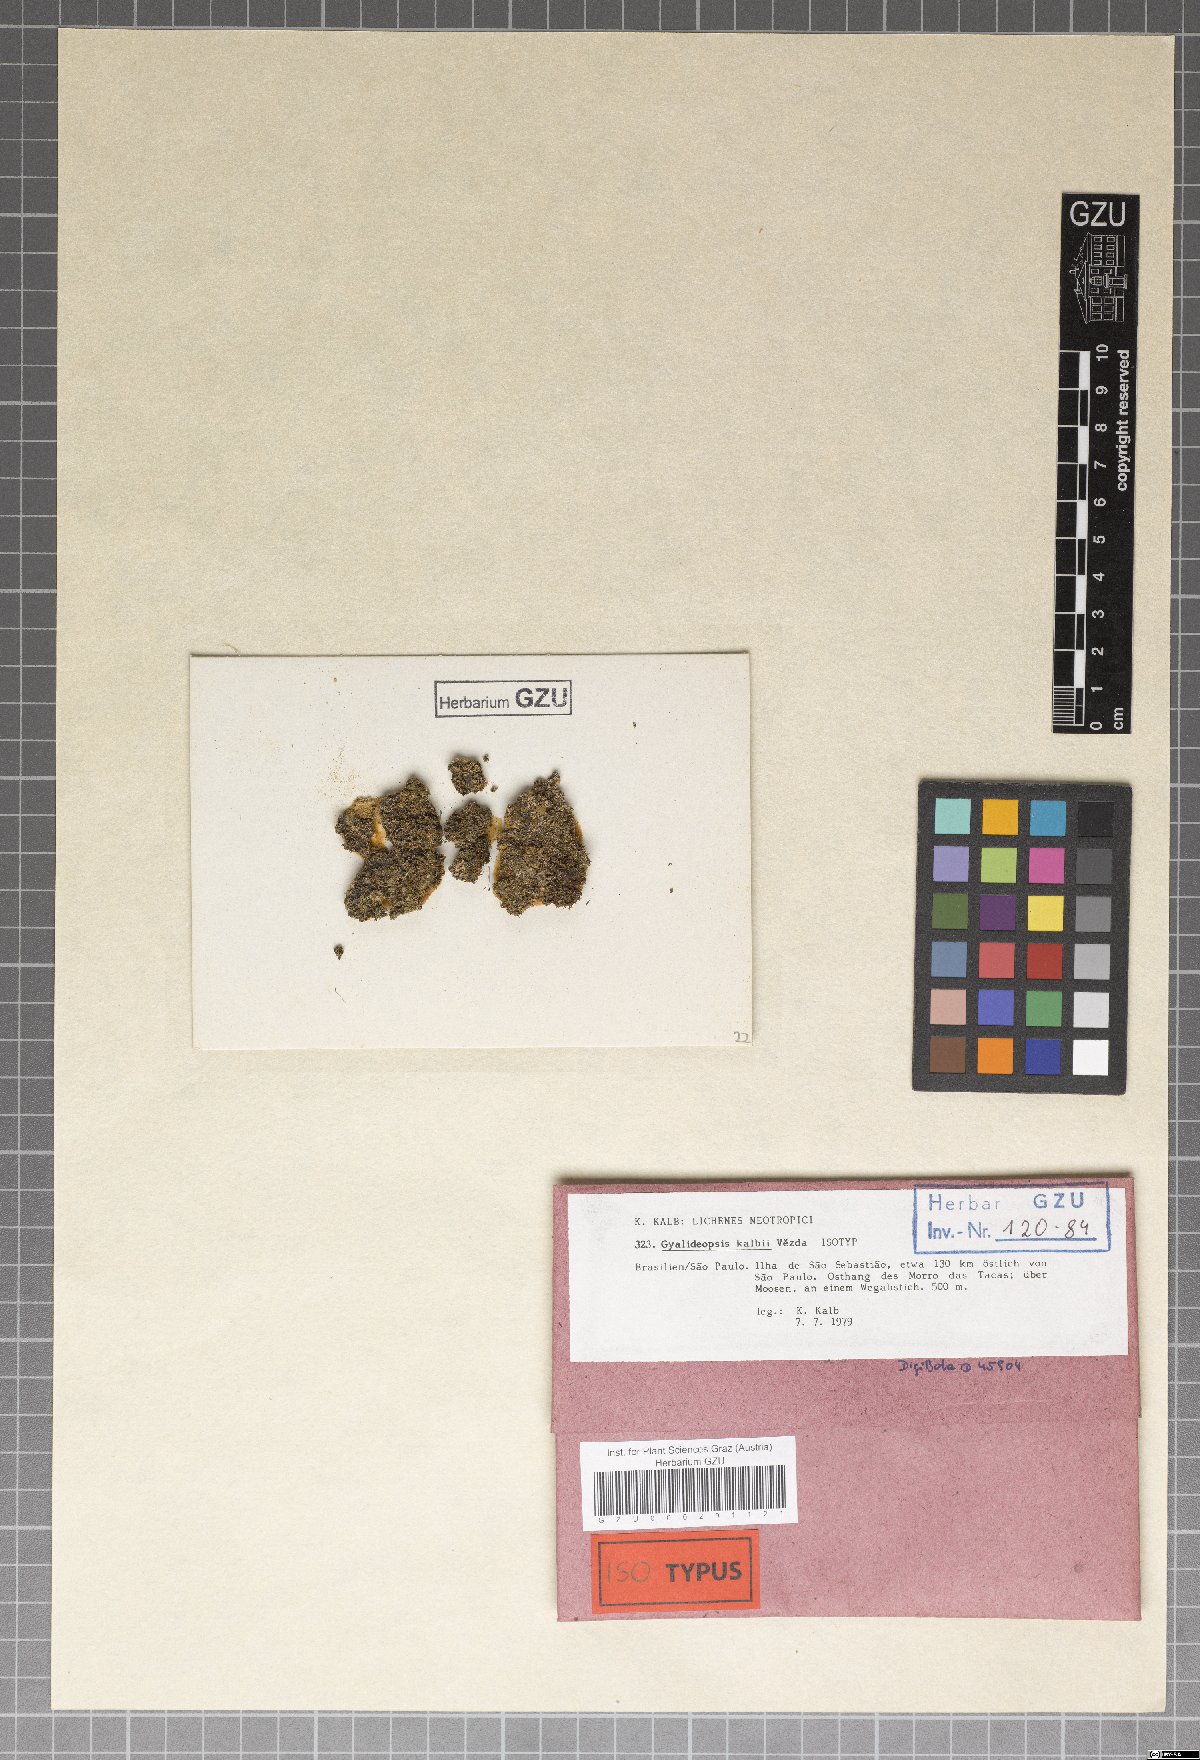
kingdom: Fungi
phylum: Ascomycota
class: Lecanoromycetes
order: Ostropales
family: Gomphillaceae
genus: Gyalideopsis
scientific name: Gyalideopsis kalbii
